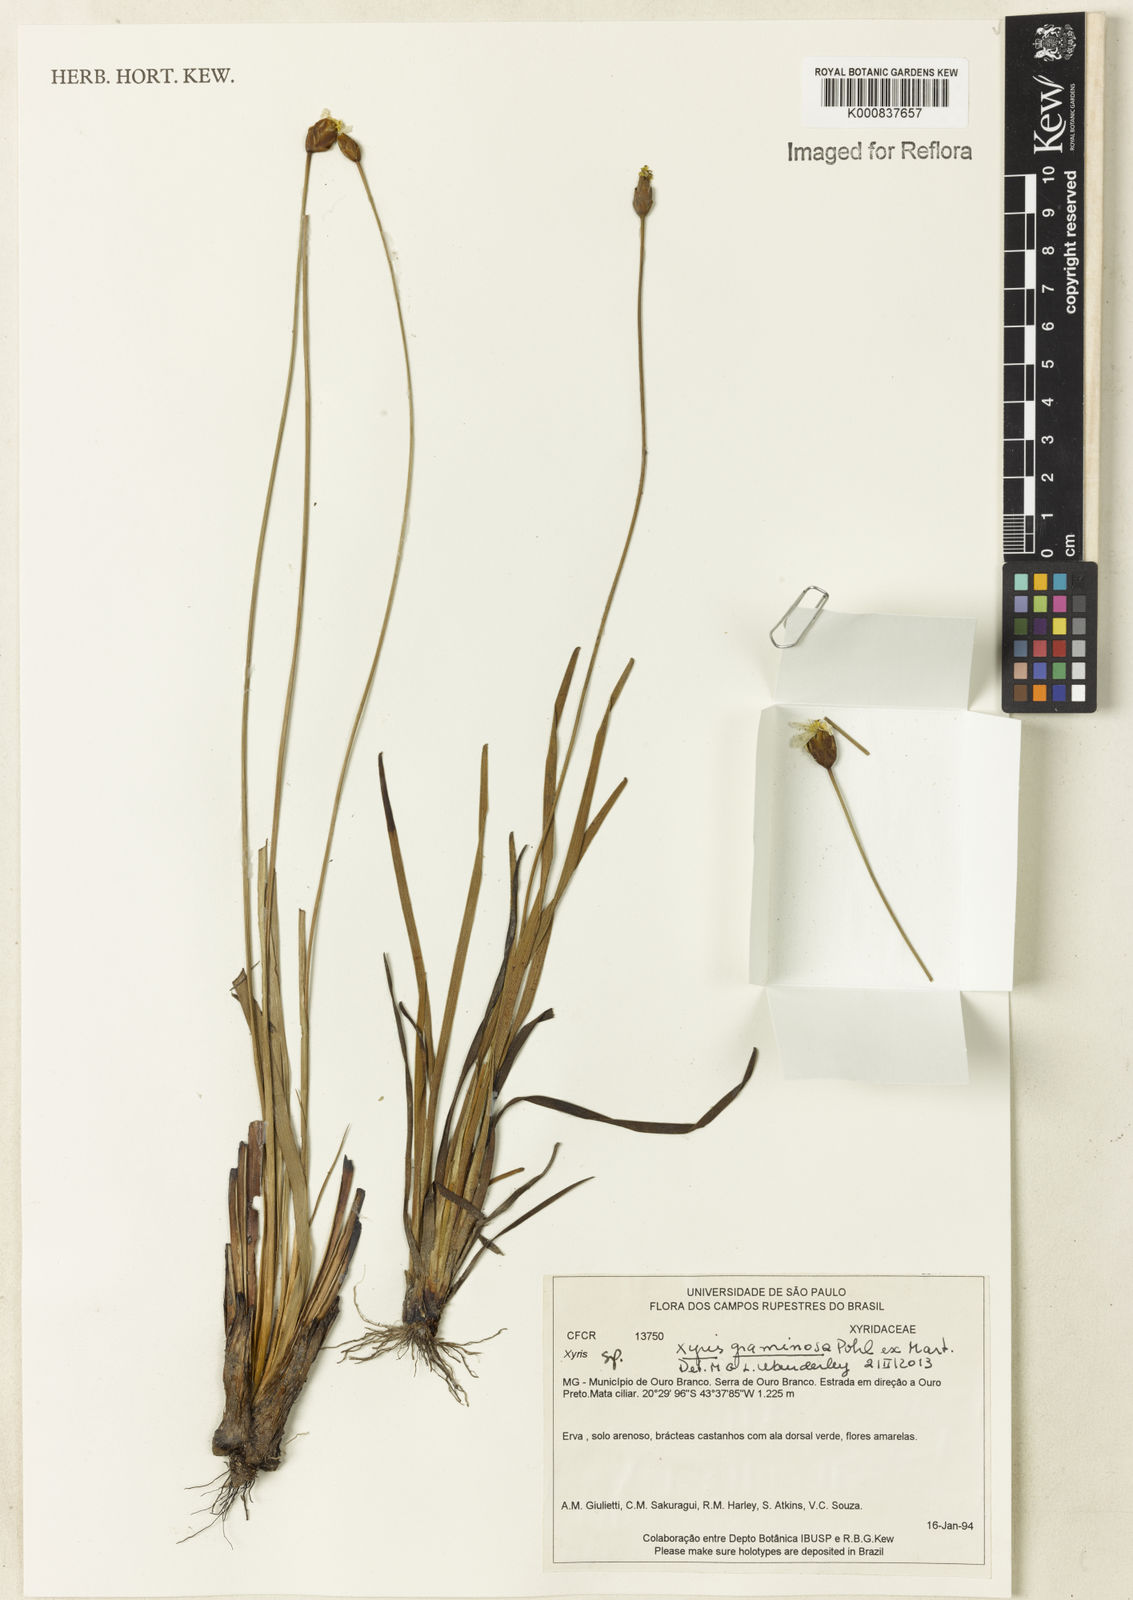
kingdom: Plantae
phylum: Tracheophyta
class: Liliopsida
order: Poales
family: Xyridaceae
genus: Xyris
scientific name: Xyris graminosa
